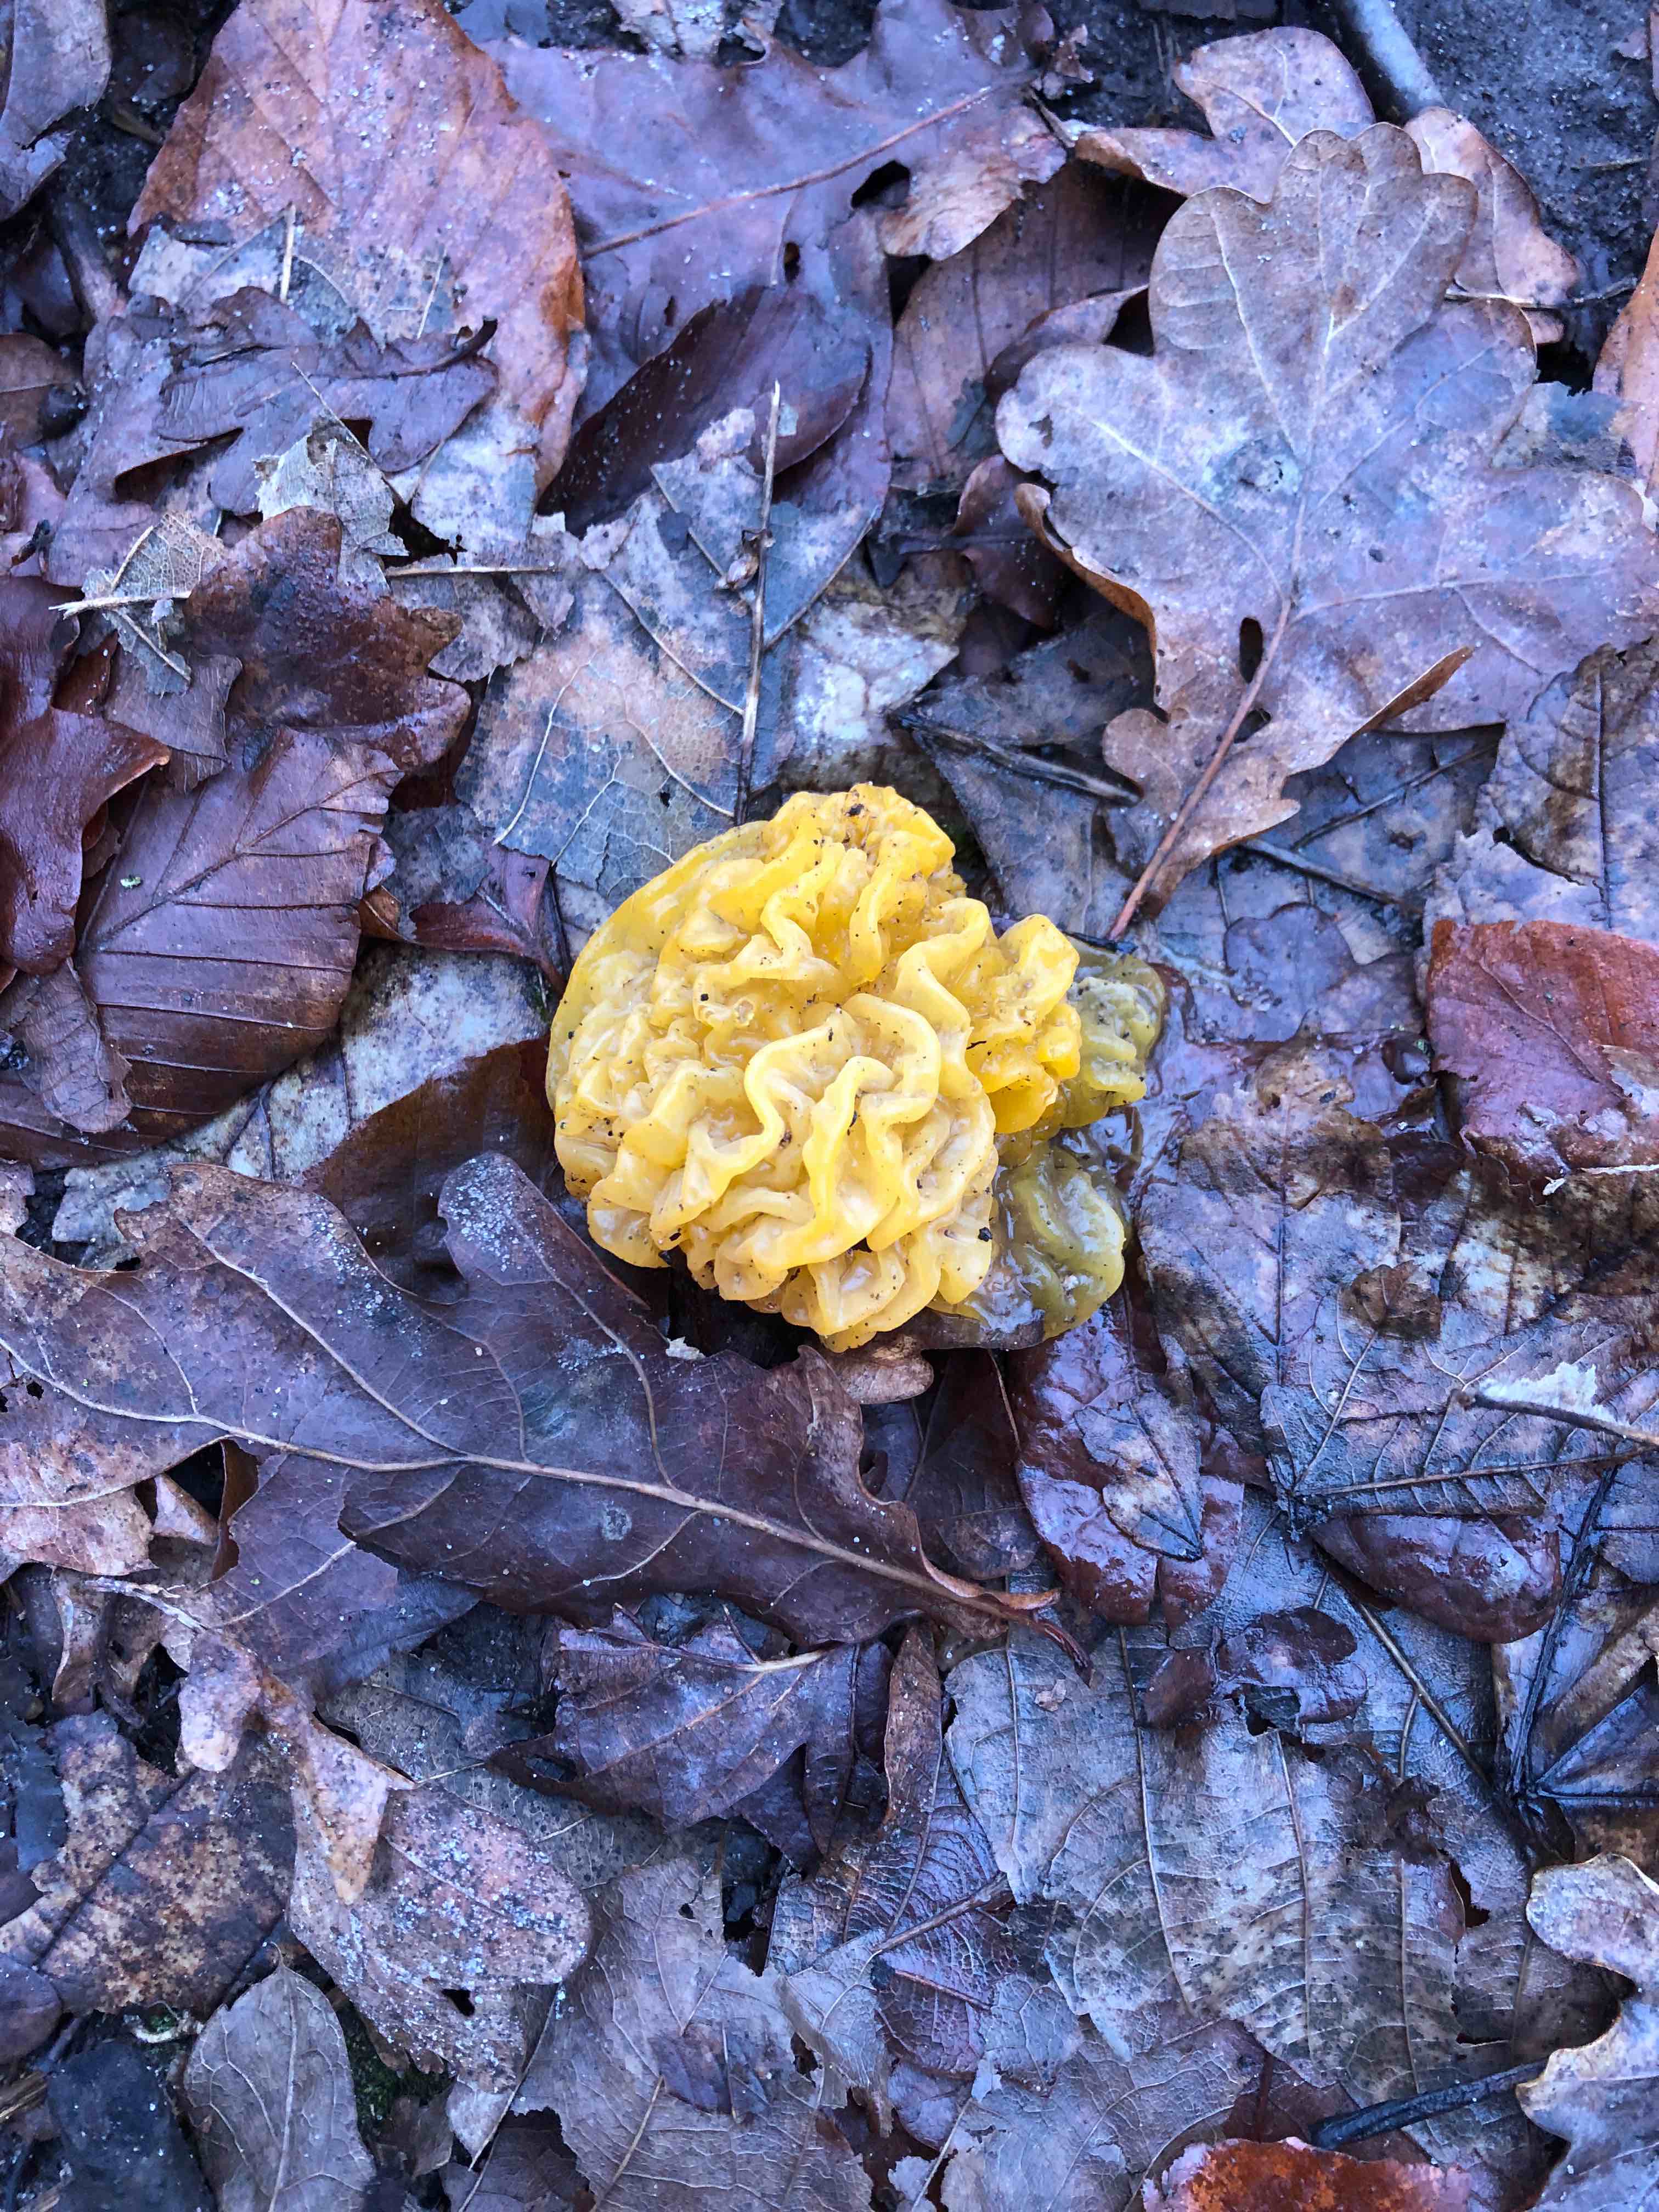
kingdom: Fungi
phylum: Basidiomycota
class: Tremellomycetes
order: Tremellales
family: Tremellaceae
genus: Tremella
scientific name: Tremella mesenterica
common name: gul bævresvamp
